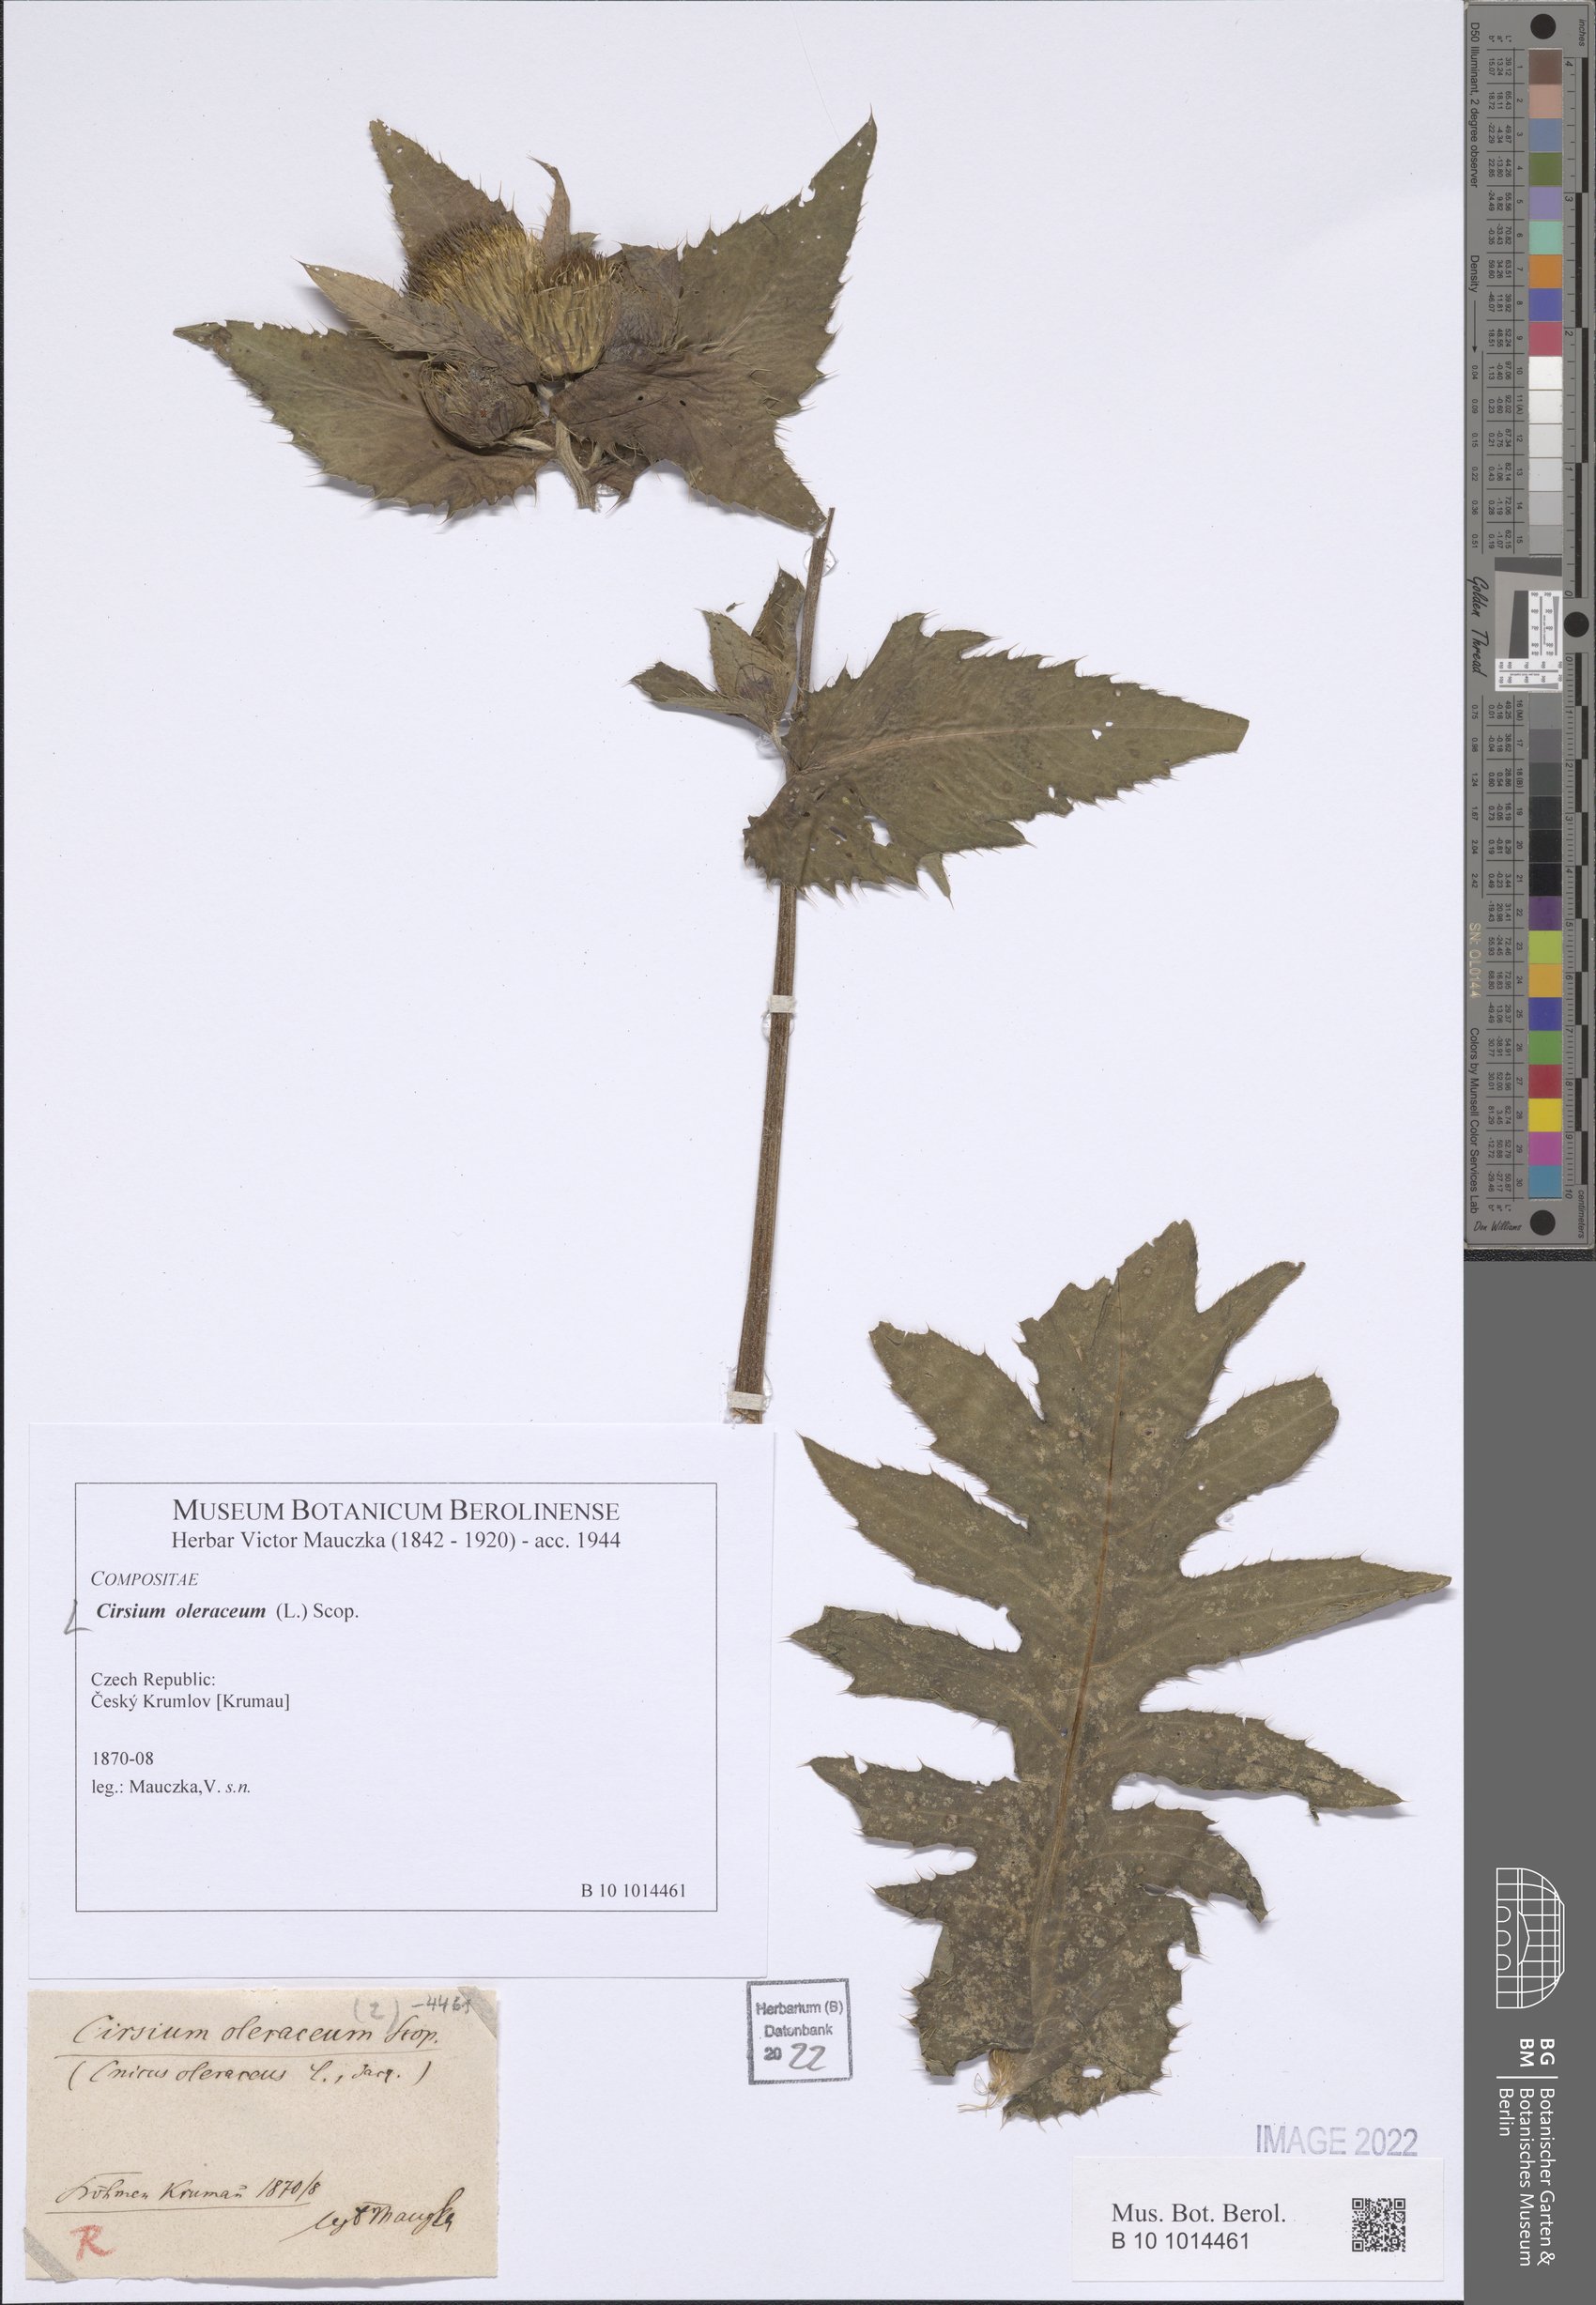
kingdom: Plantae
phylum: Tracheophyta
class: Magnoliopsida
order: Asterales
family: Asteraceae
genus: Cirsium
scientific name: Cirsium oleraceum
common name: Cabbage thistle
